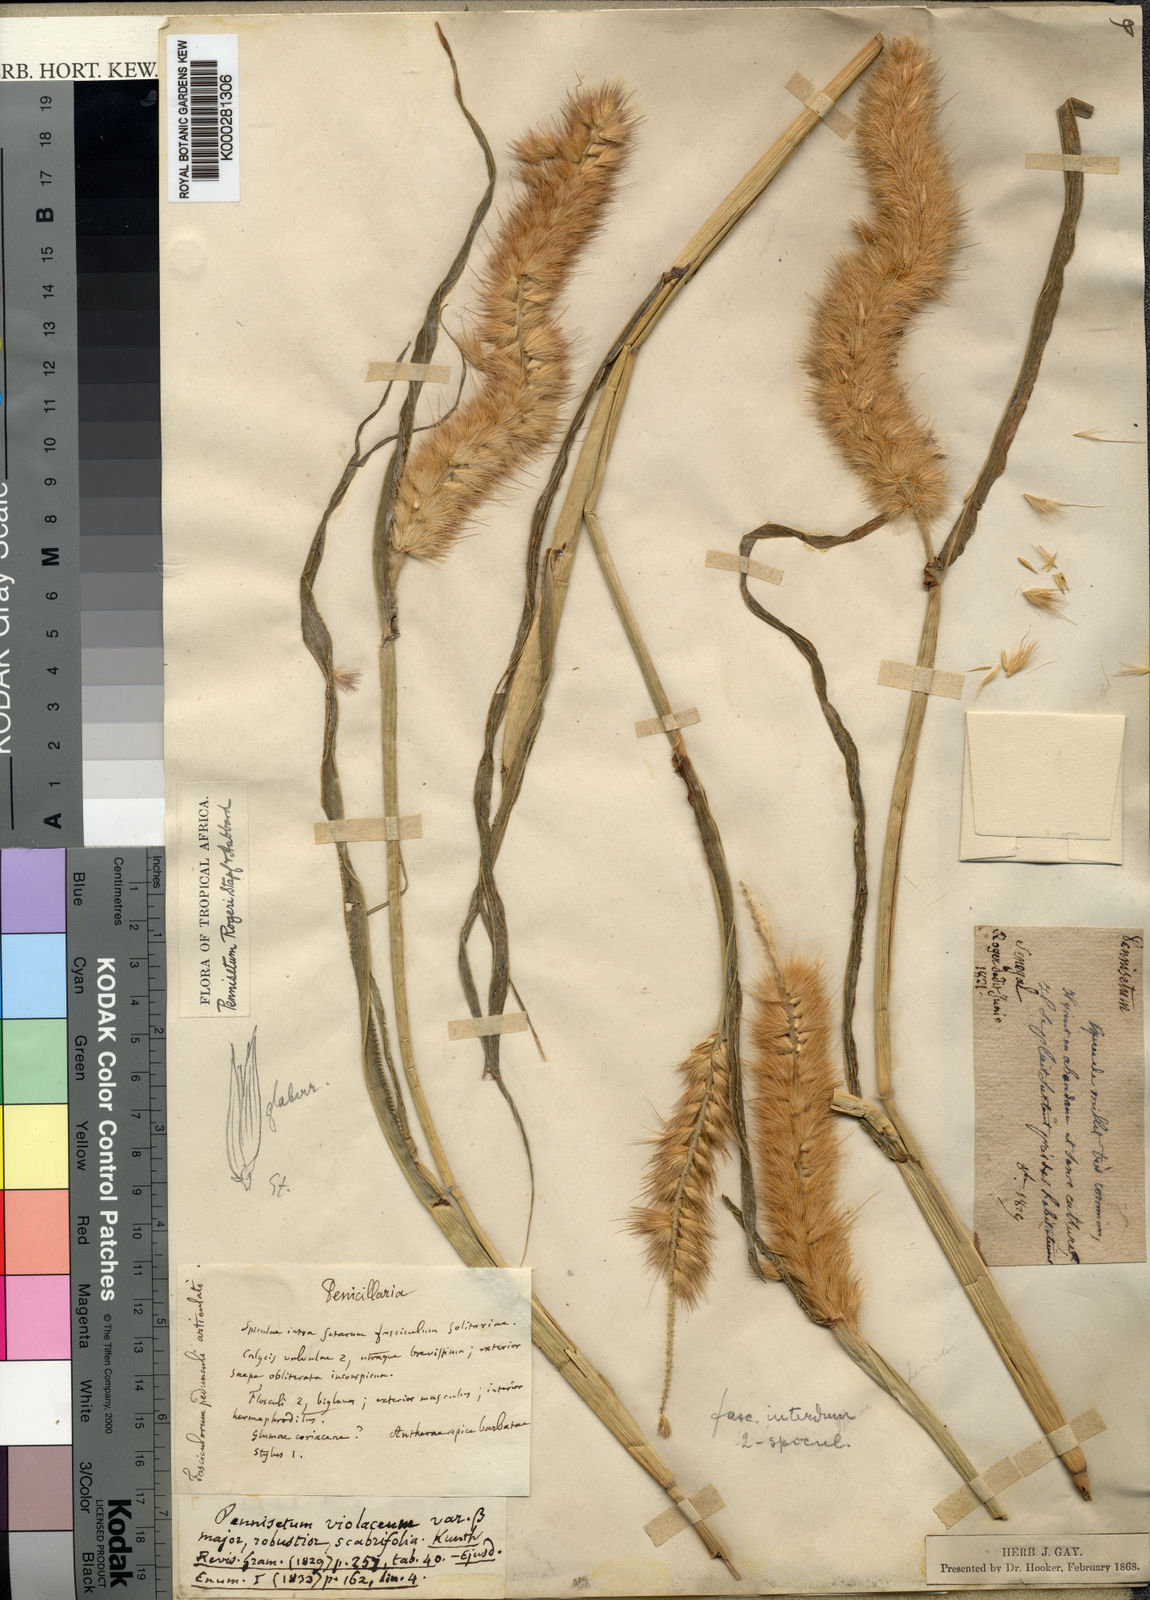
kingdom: Plantae
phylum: Tracheophyta
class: Liliopsida
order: Poales
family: Poaceae
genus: Cenchrus
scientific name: Cenchrus violaceus
